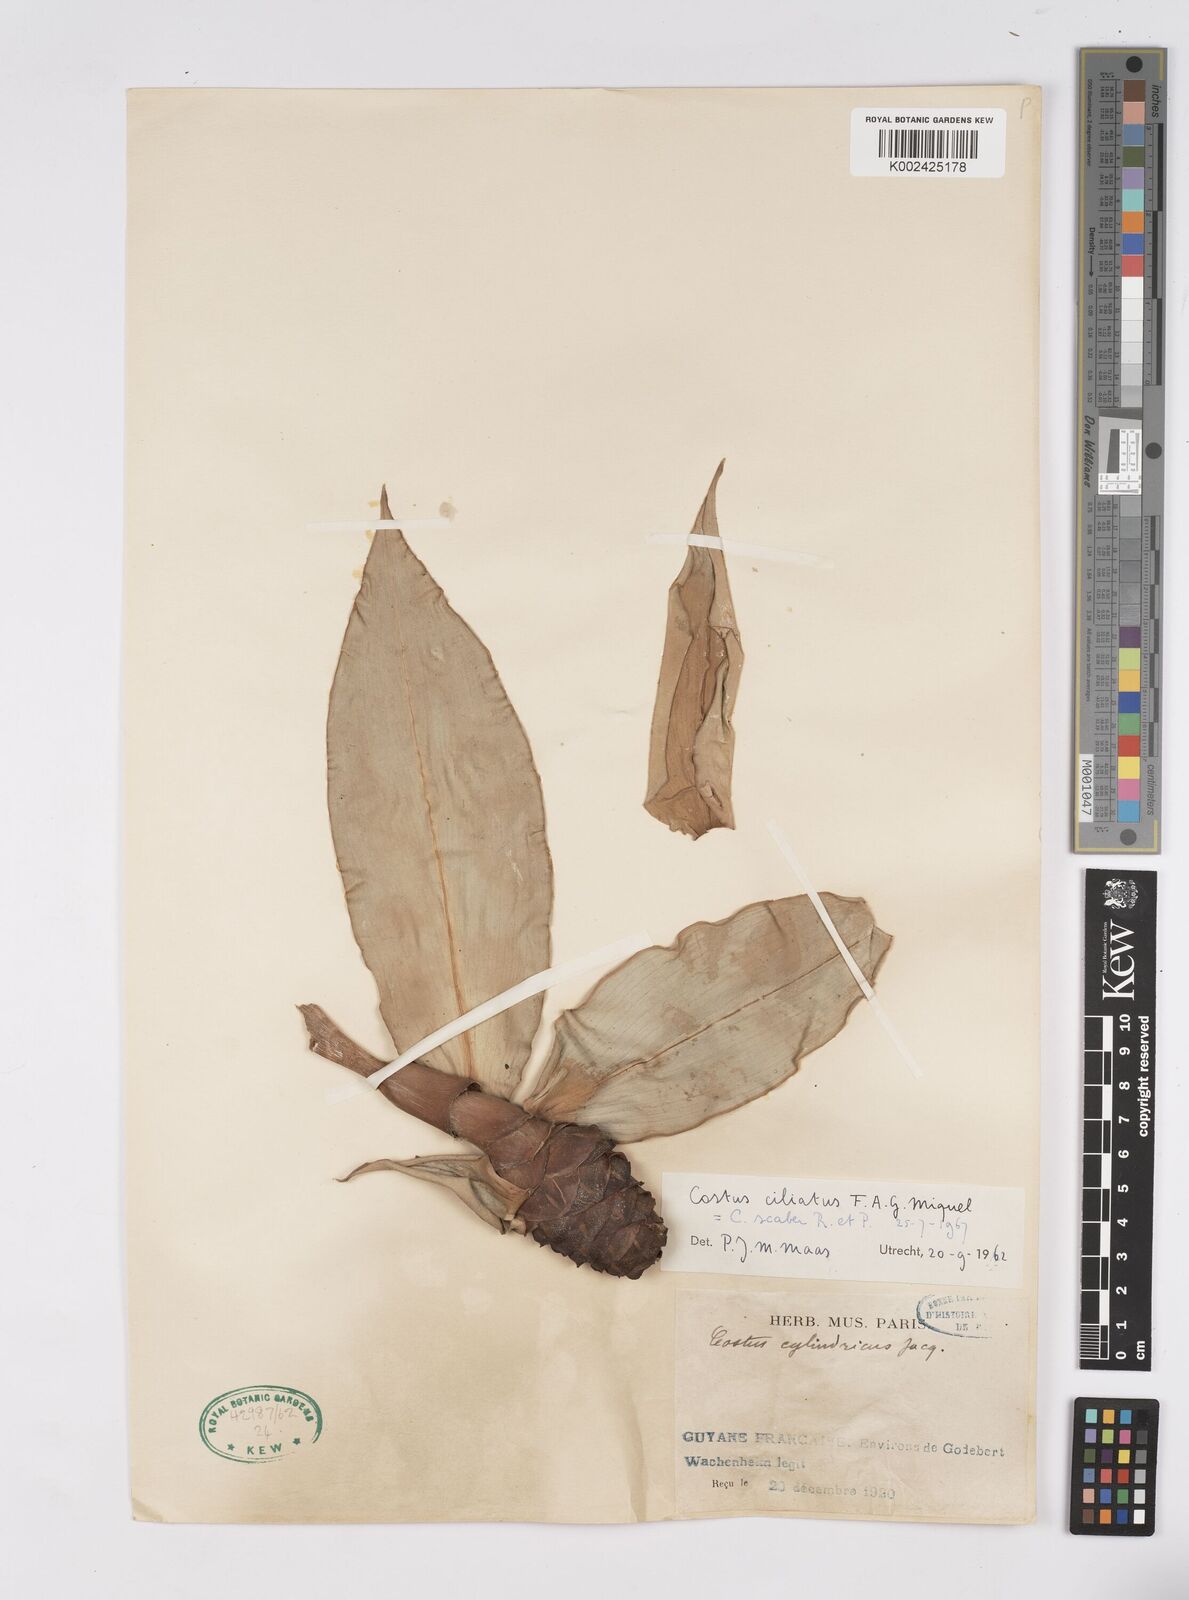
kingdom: Plantae
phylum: Tracheophyta
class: Liliopsida
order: Zingiberales
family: Costaceae
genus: Costus
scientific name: Costus scaber
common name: Spiral head ginger
